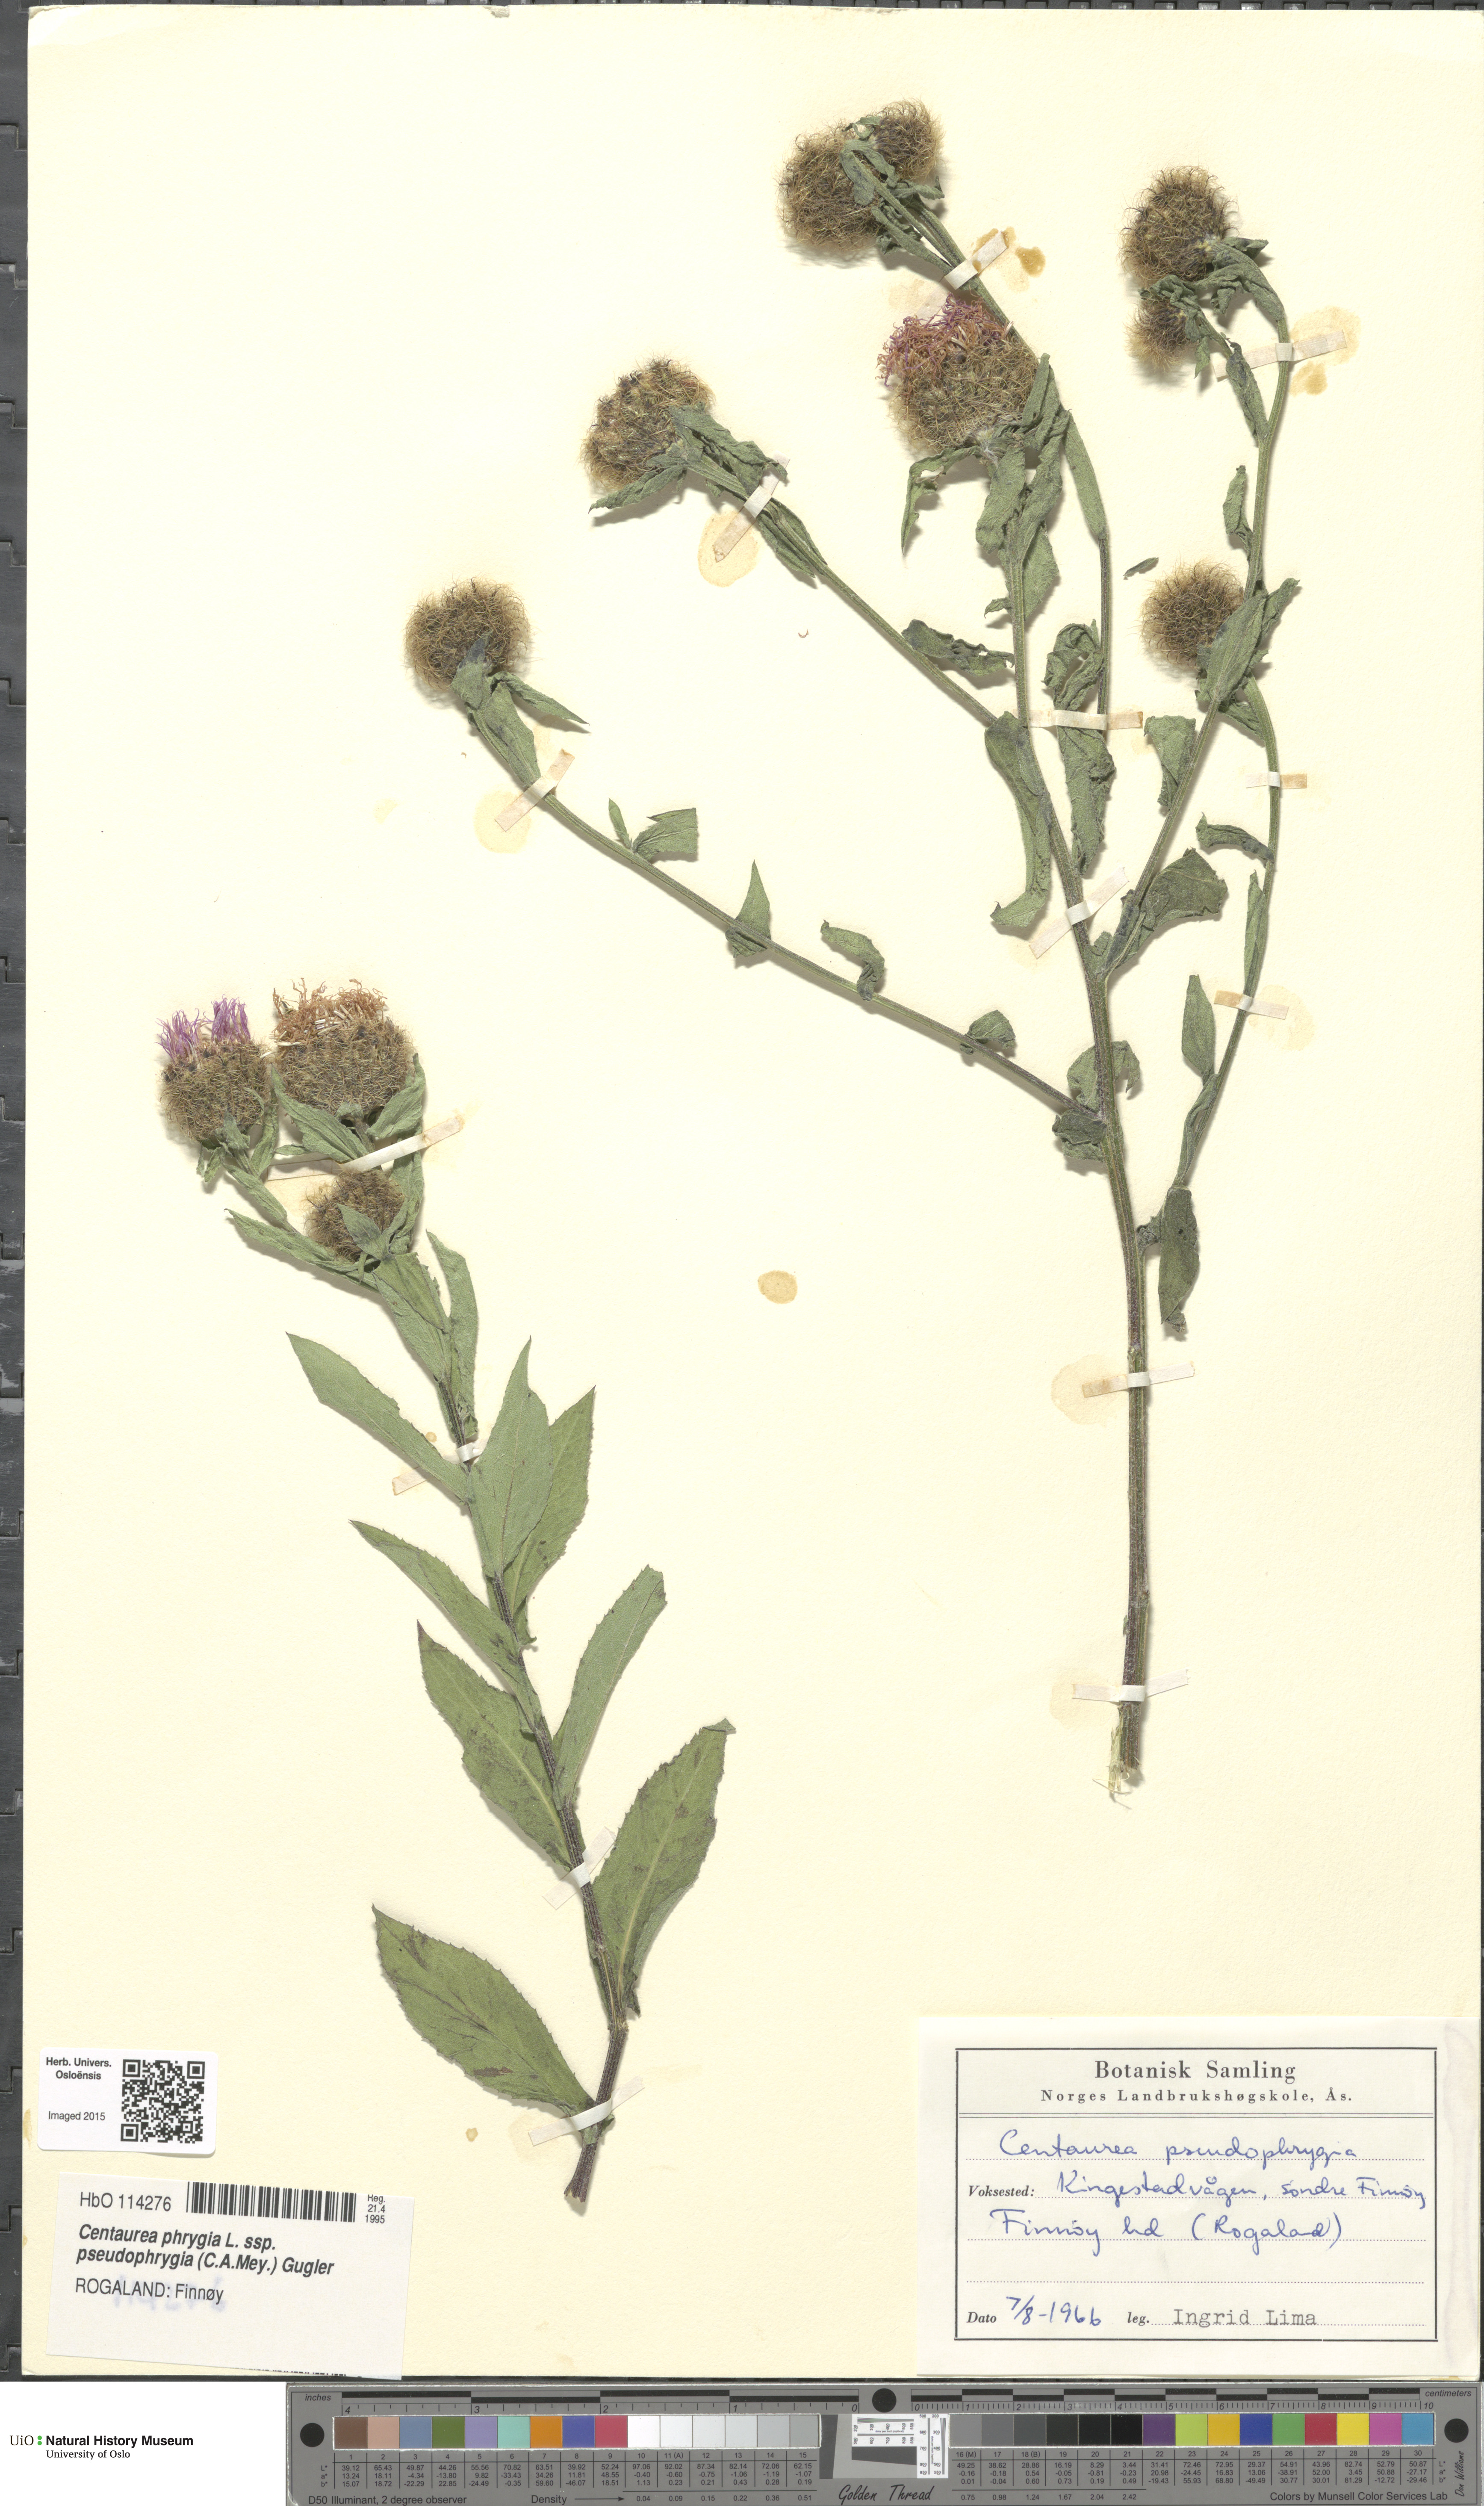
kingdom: Plantae
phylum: Tracheophyta
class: Magnoliopsida
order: Asterales
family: Asteraceae
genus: Centaurea
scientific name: Centaurea pseudophrygia
